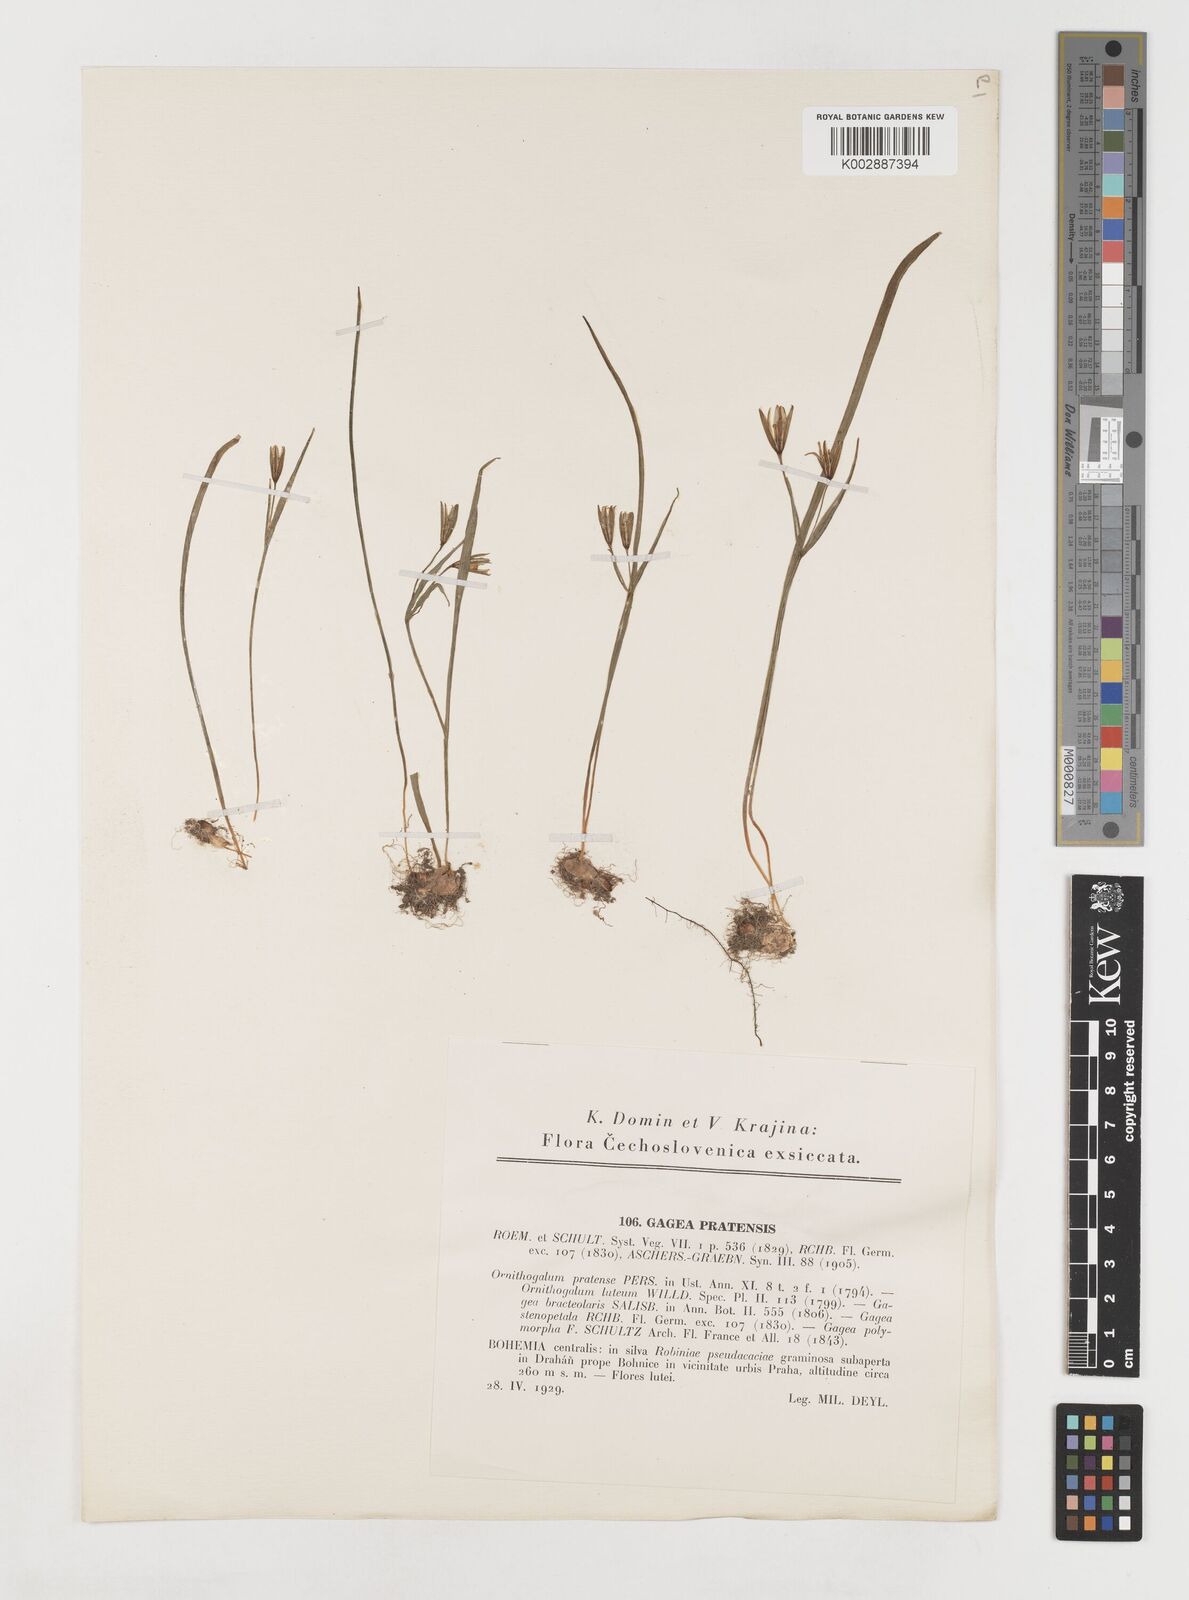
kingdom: Plantae
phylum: Tracheophyta
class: Liliopsida
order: Liliales
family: Liliaceae
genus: Gagea
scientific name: Gagea pratensis
